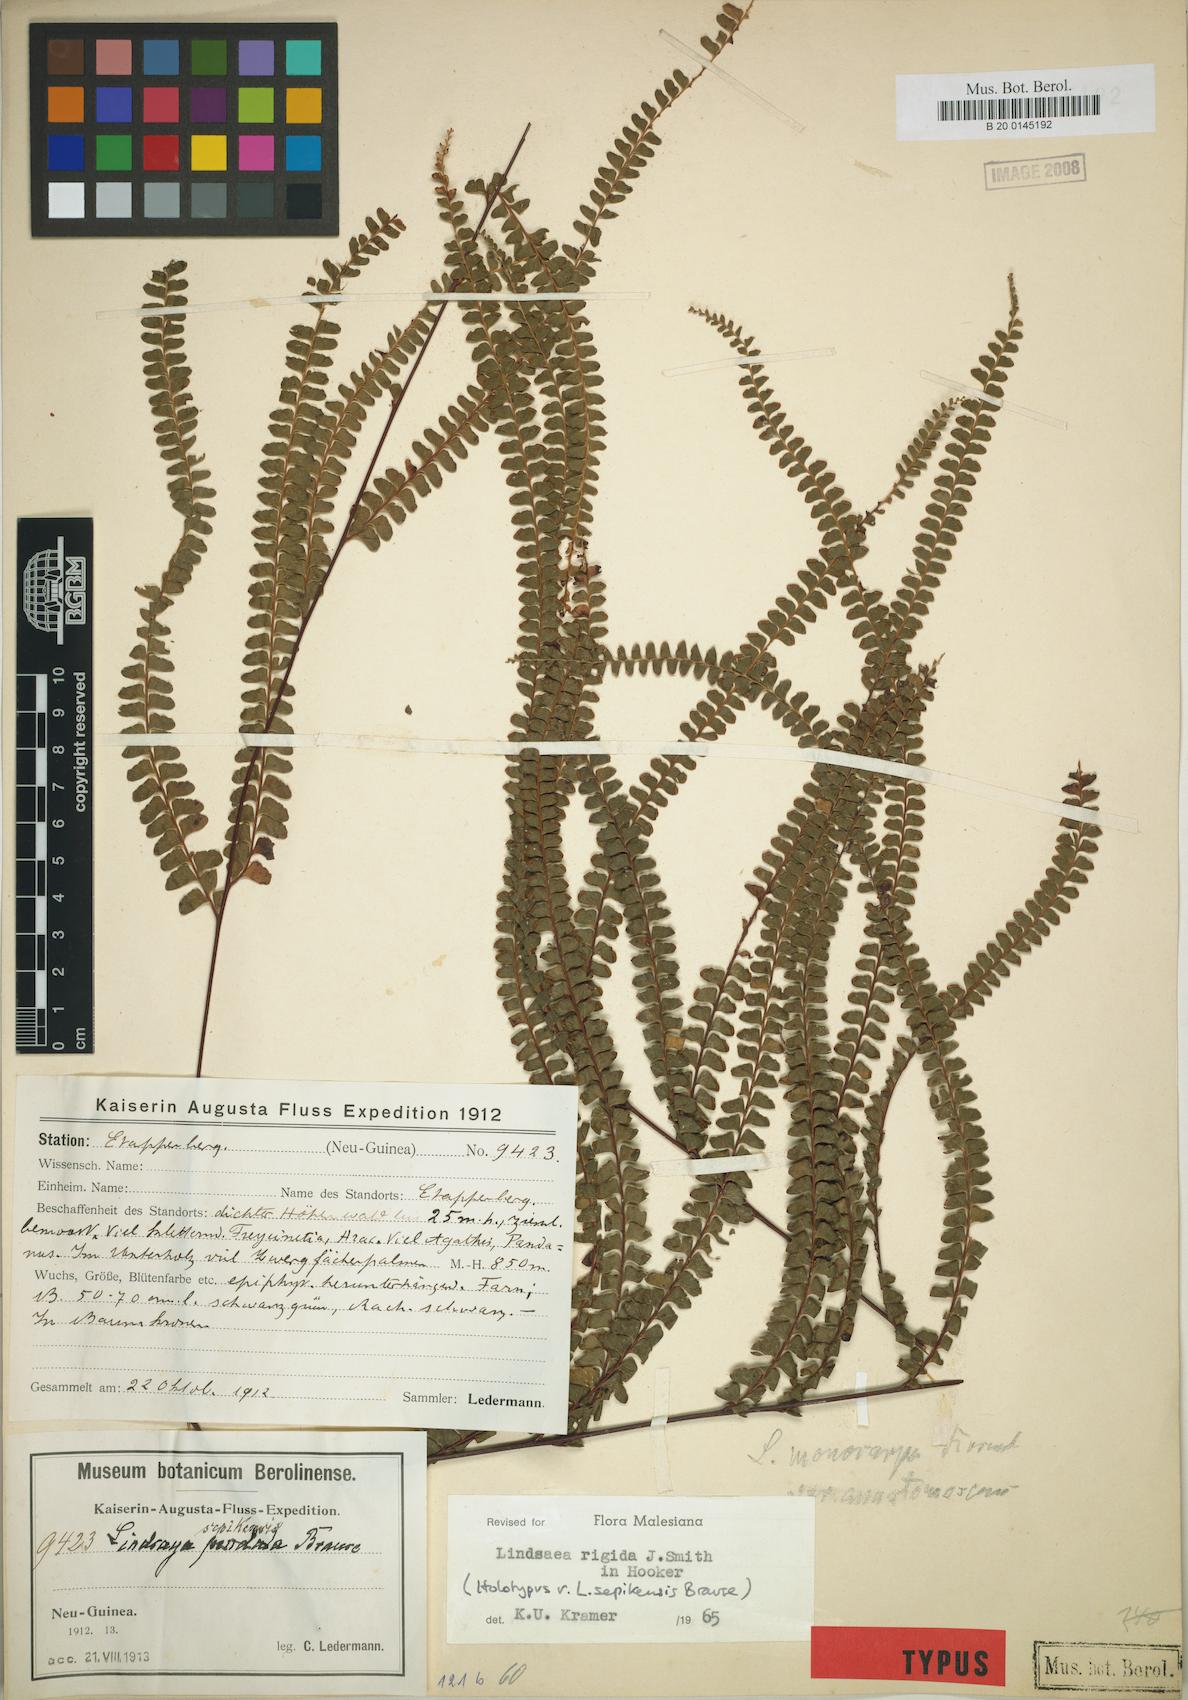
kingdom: Plantae
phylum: Tracheophyta
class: Polypodiopsida
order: Polypodiales
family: Lindsaeaceae
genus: Lindsaea
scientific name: Lindsaea rigida
